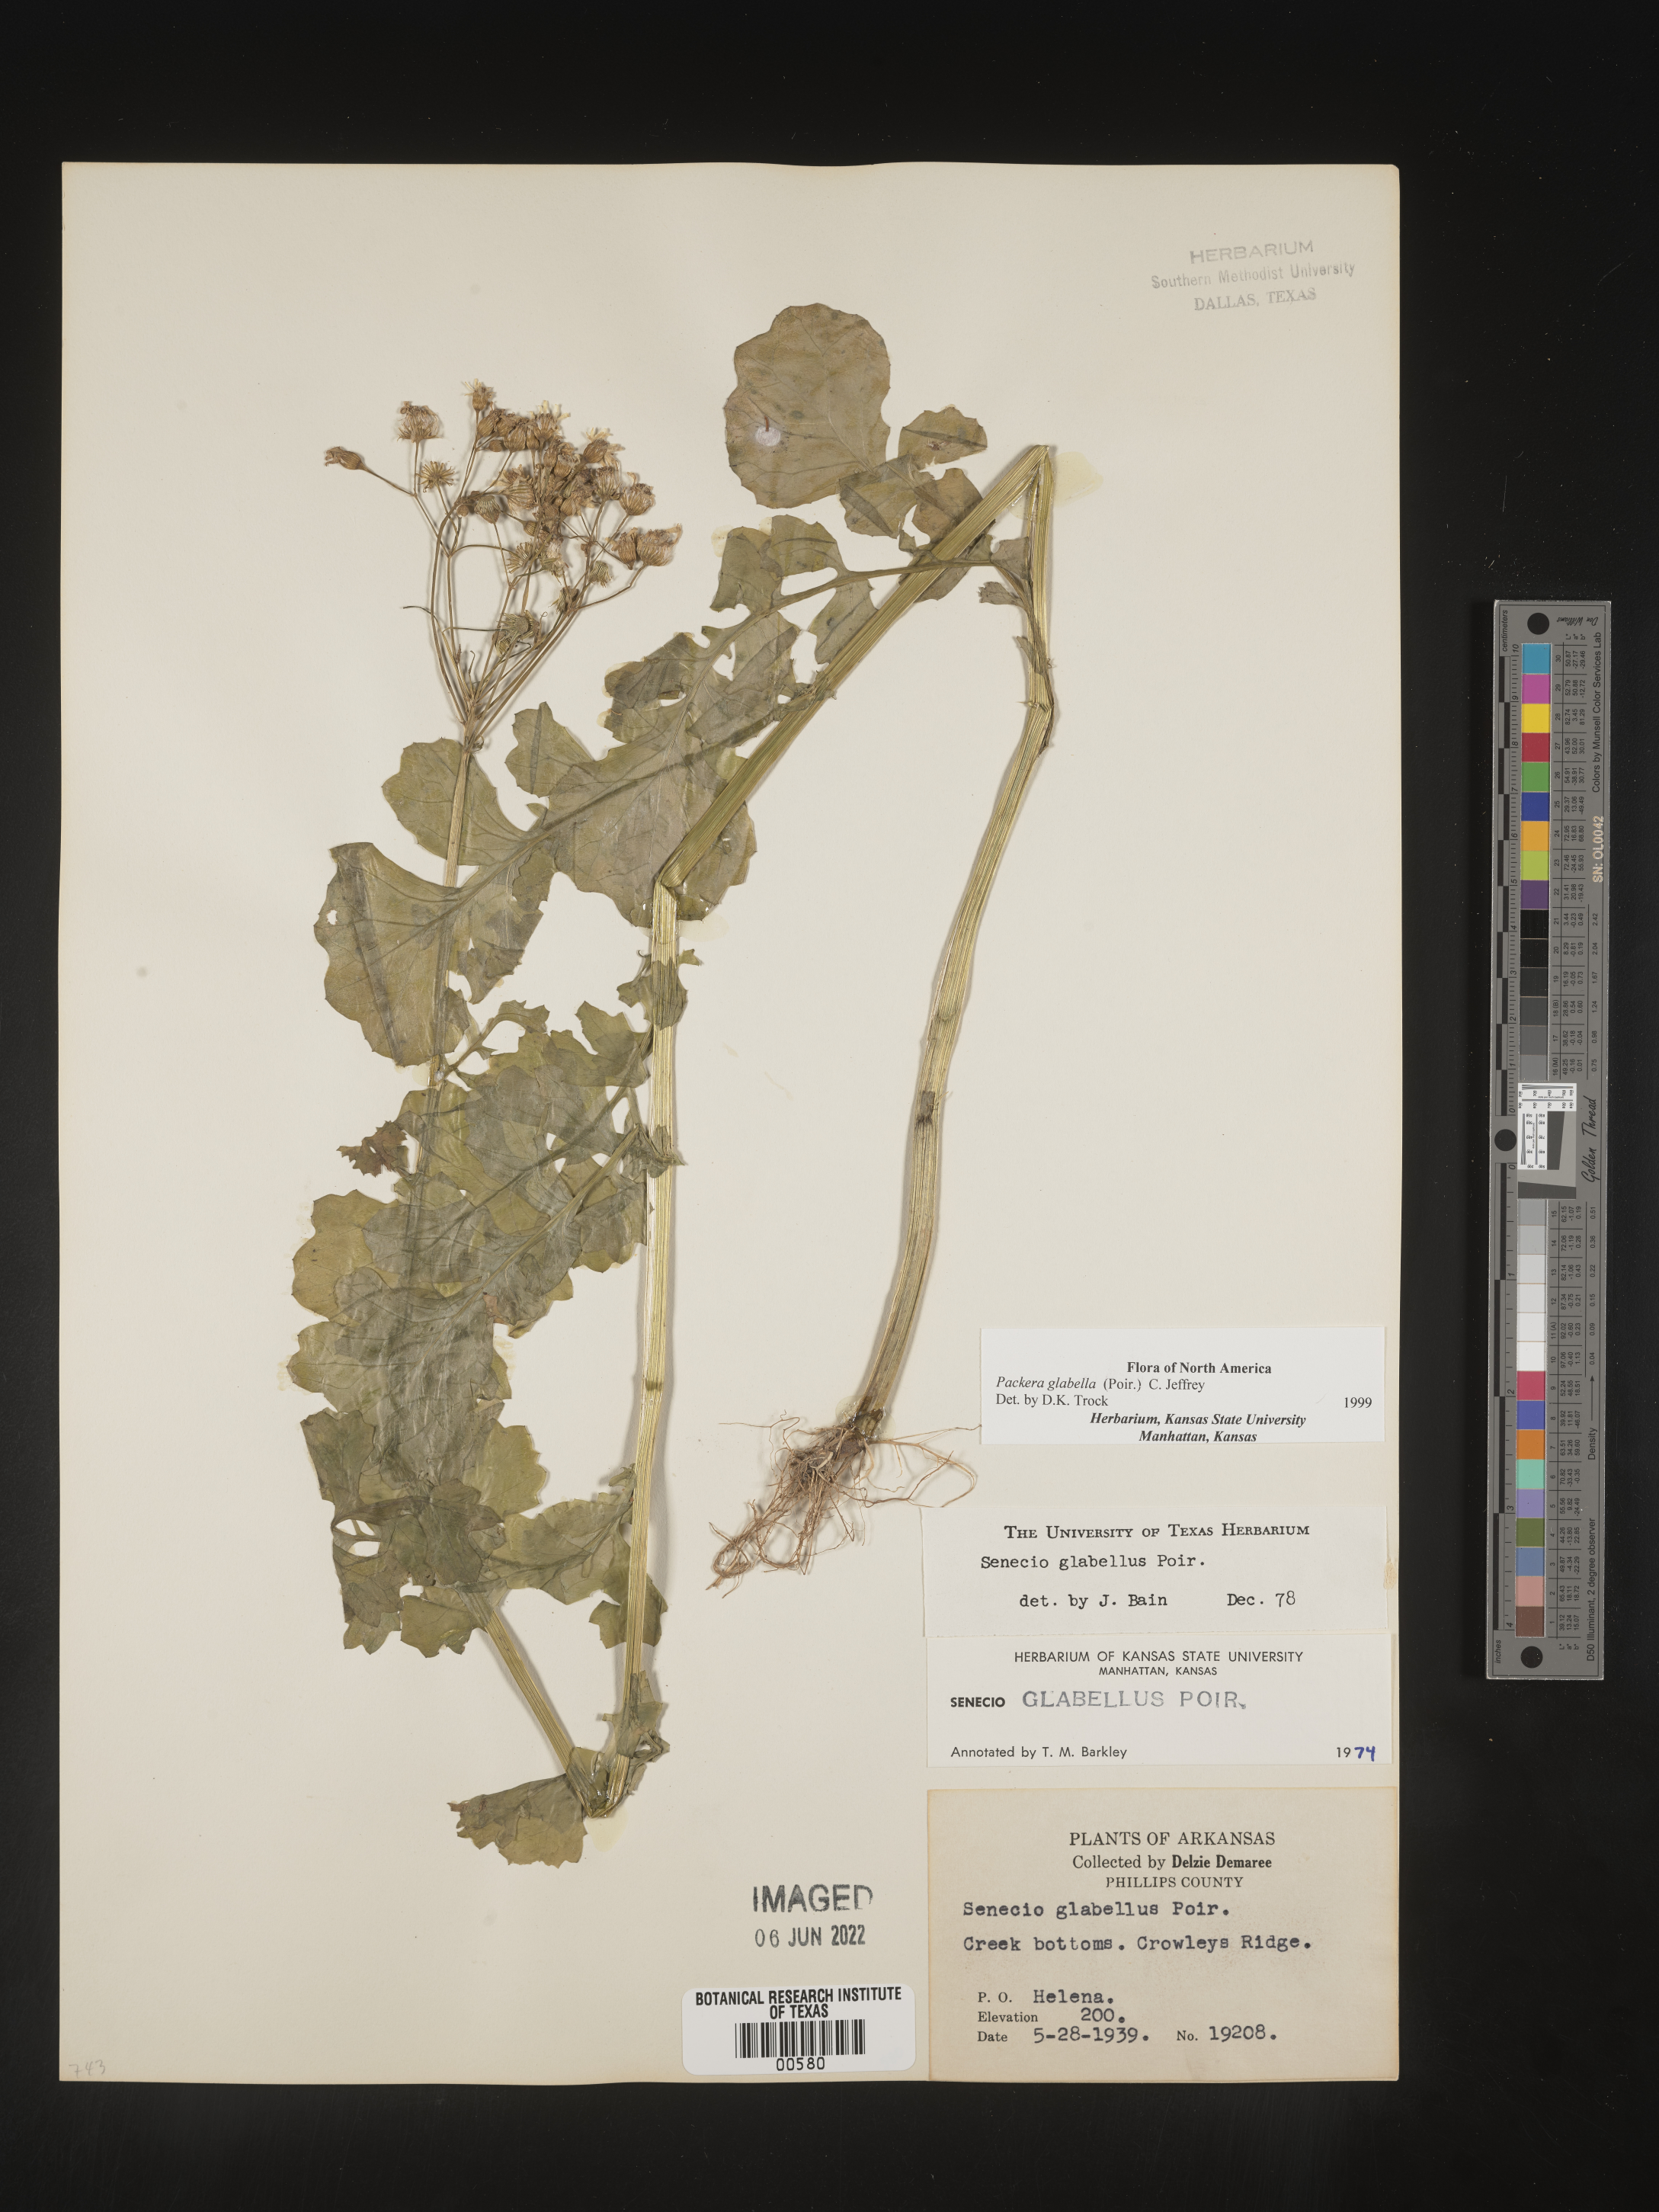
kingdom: Plantae
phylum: Tracheophyta
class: Magnoliopsida
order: Asterales
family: Asteraceae
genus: Packera
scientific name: Packera glabella
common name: Butterweed
